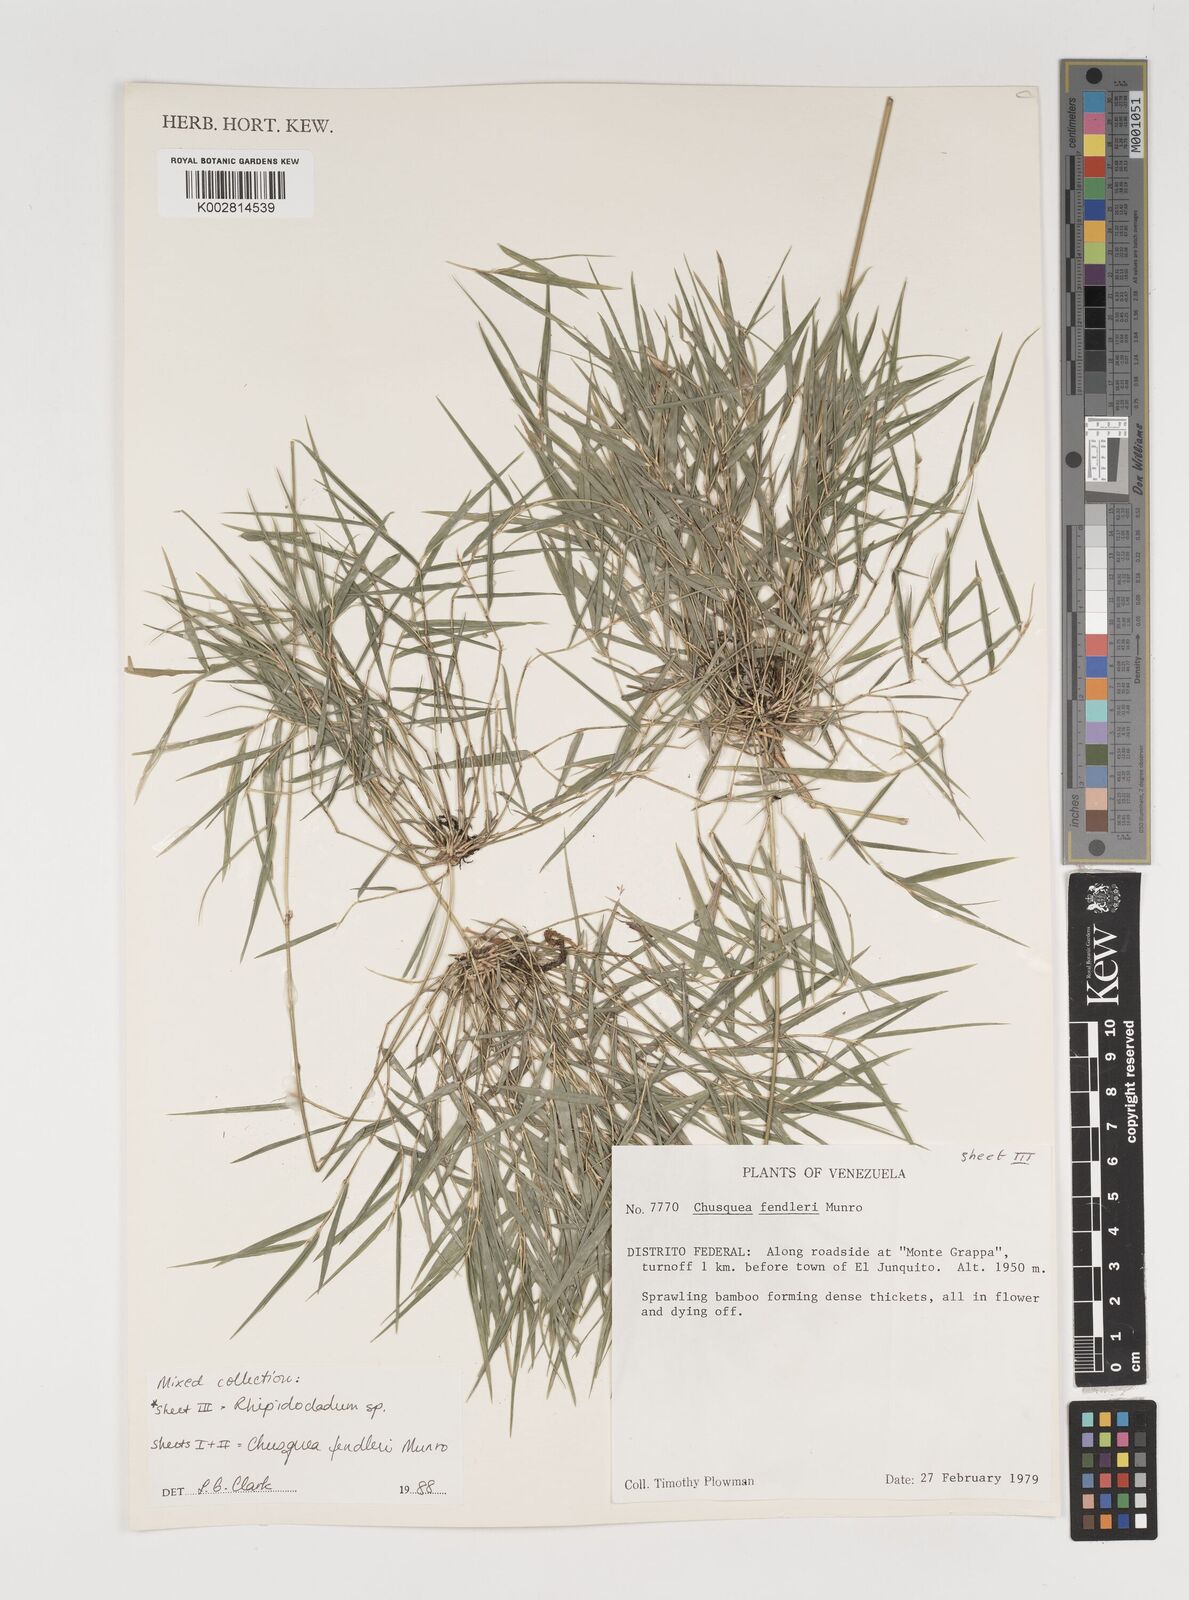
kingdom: Plantae
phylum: Tracheophyta
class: Liliopsida
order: Poales
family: Poaceae
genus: Rhipidocladum
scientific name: Rhipidocladum
